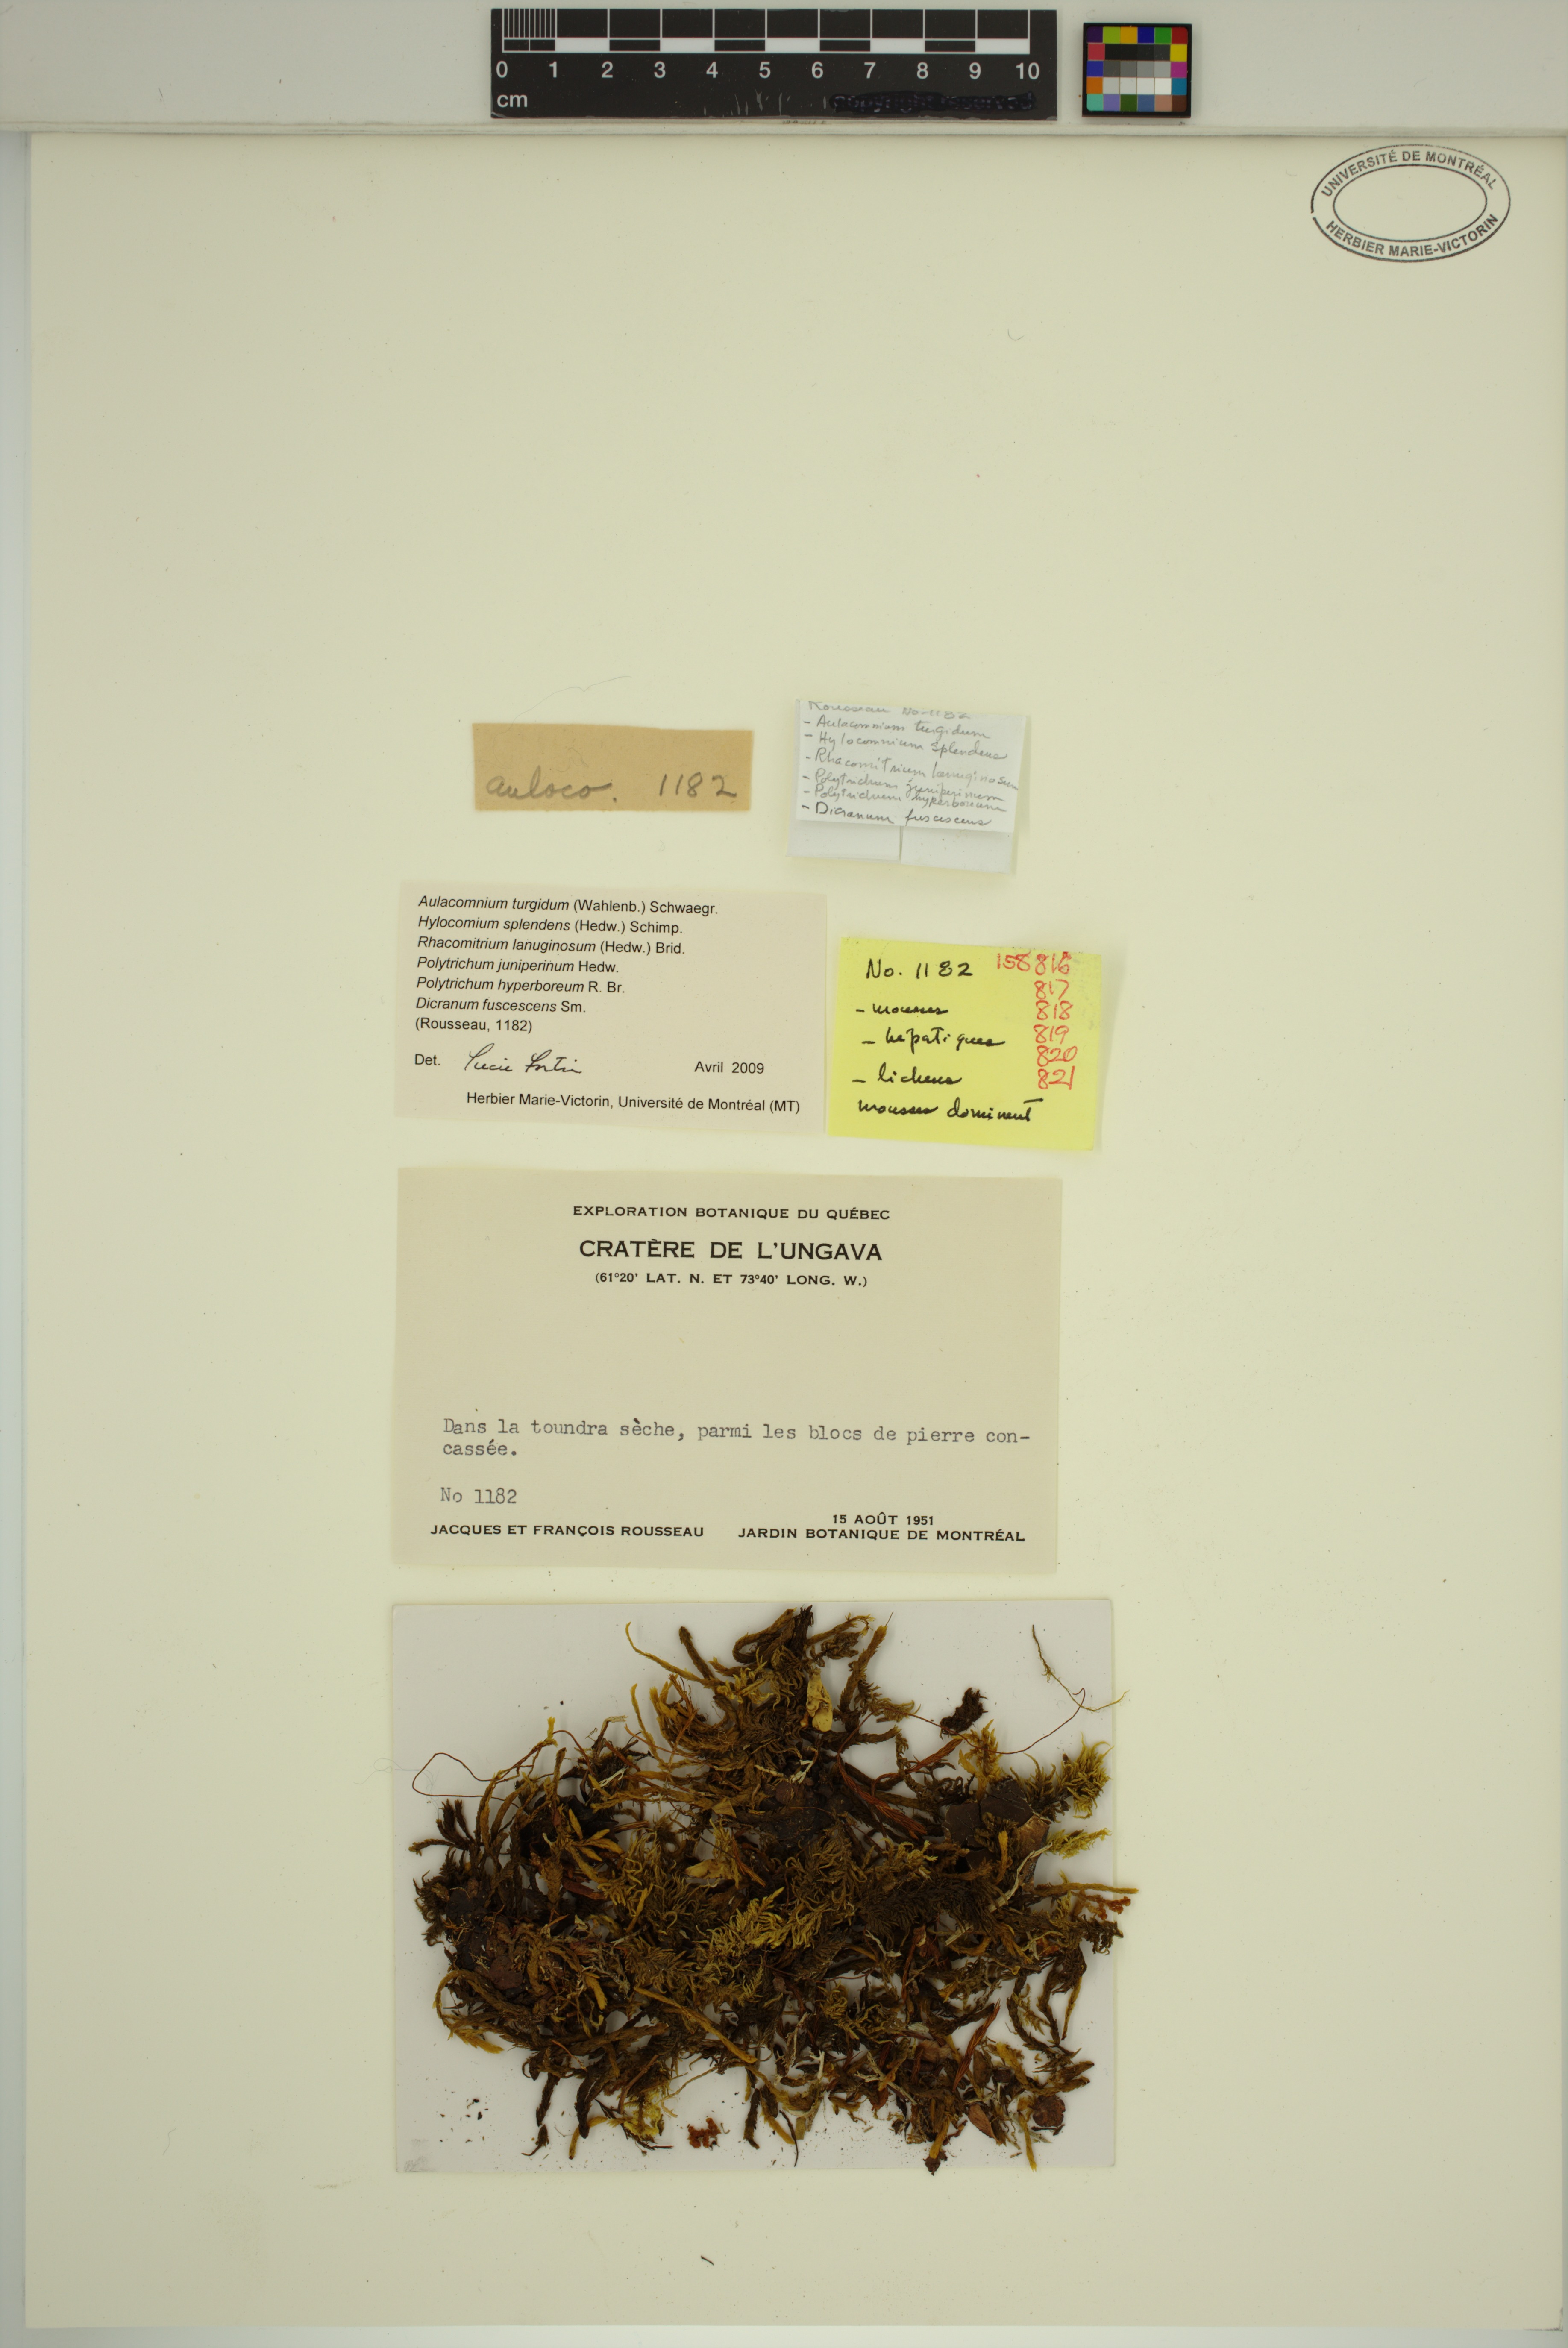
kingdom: Plantae
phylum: Bryophyta
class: Bryopsida
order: Aulacomniales
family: Aulacomniaceae
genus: Aulacomnium
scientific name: Aulacomnium turgidum
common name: Mountain groove moss
